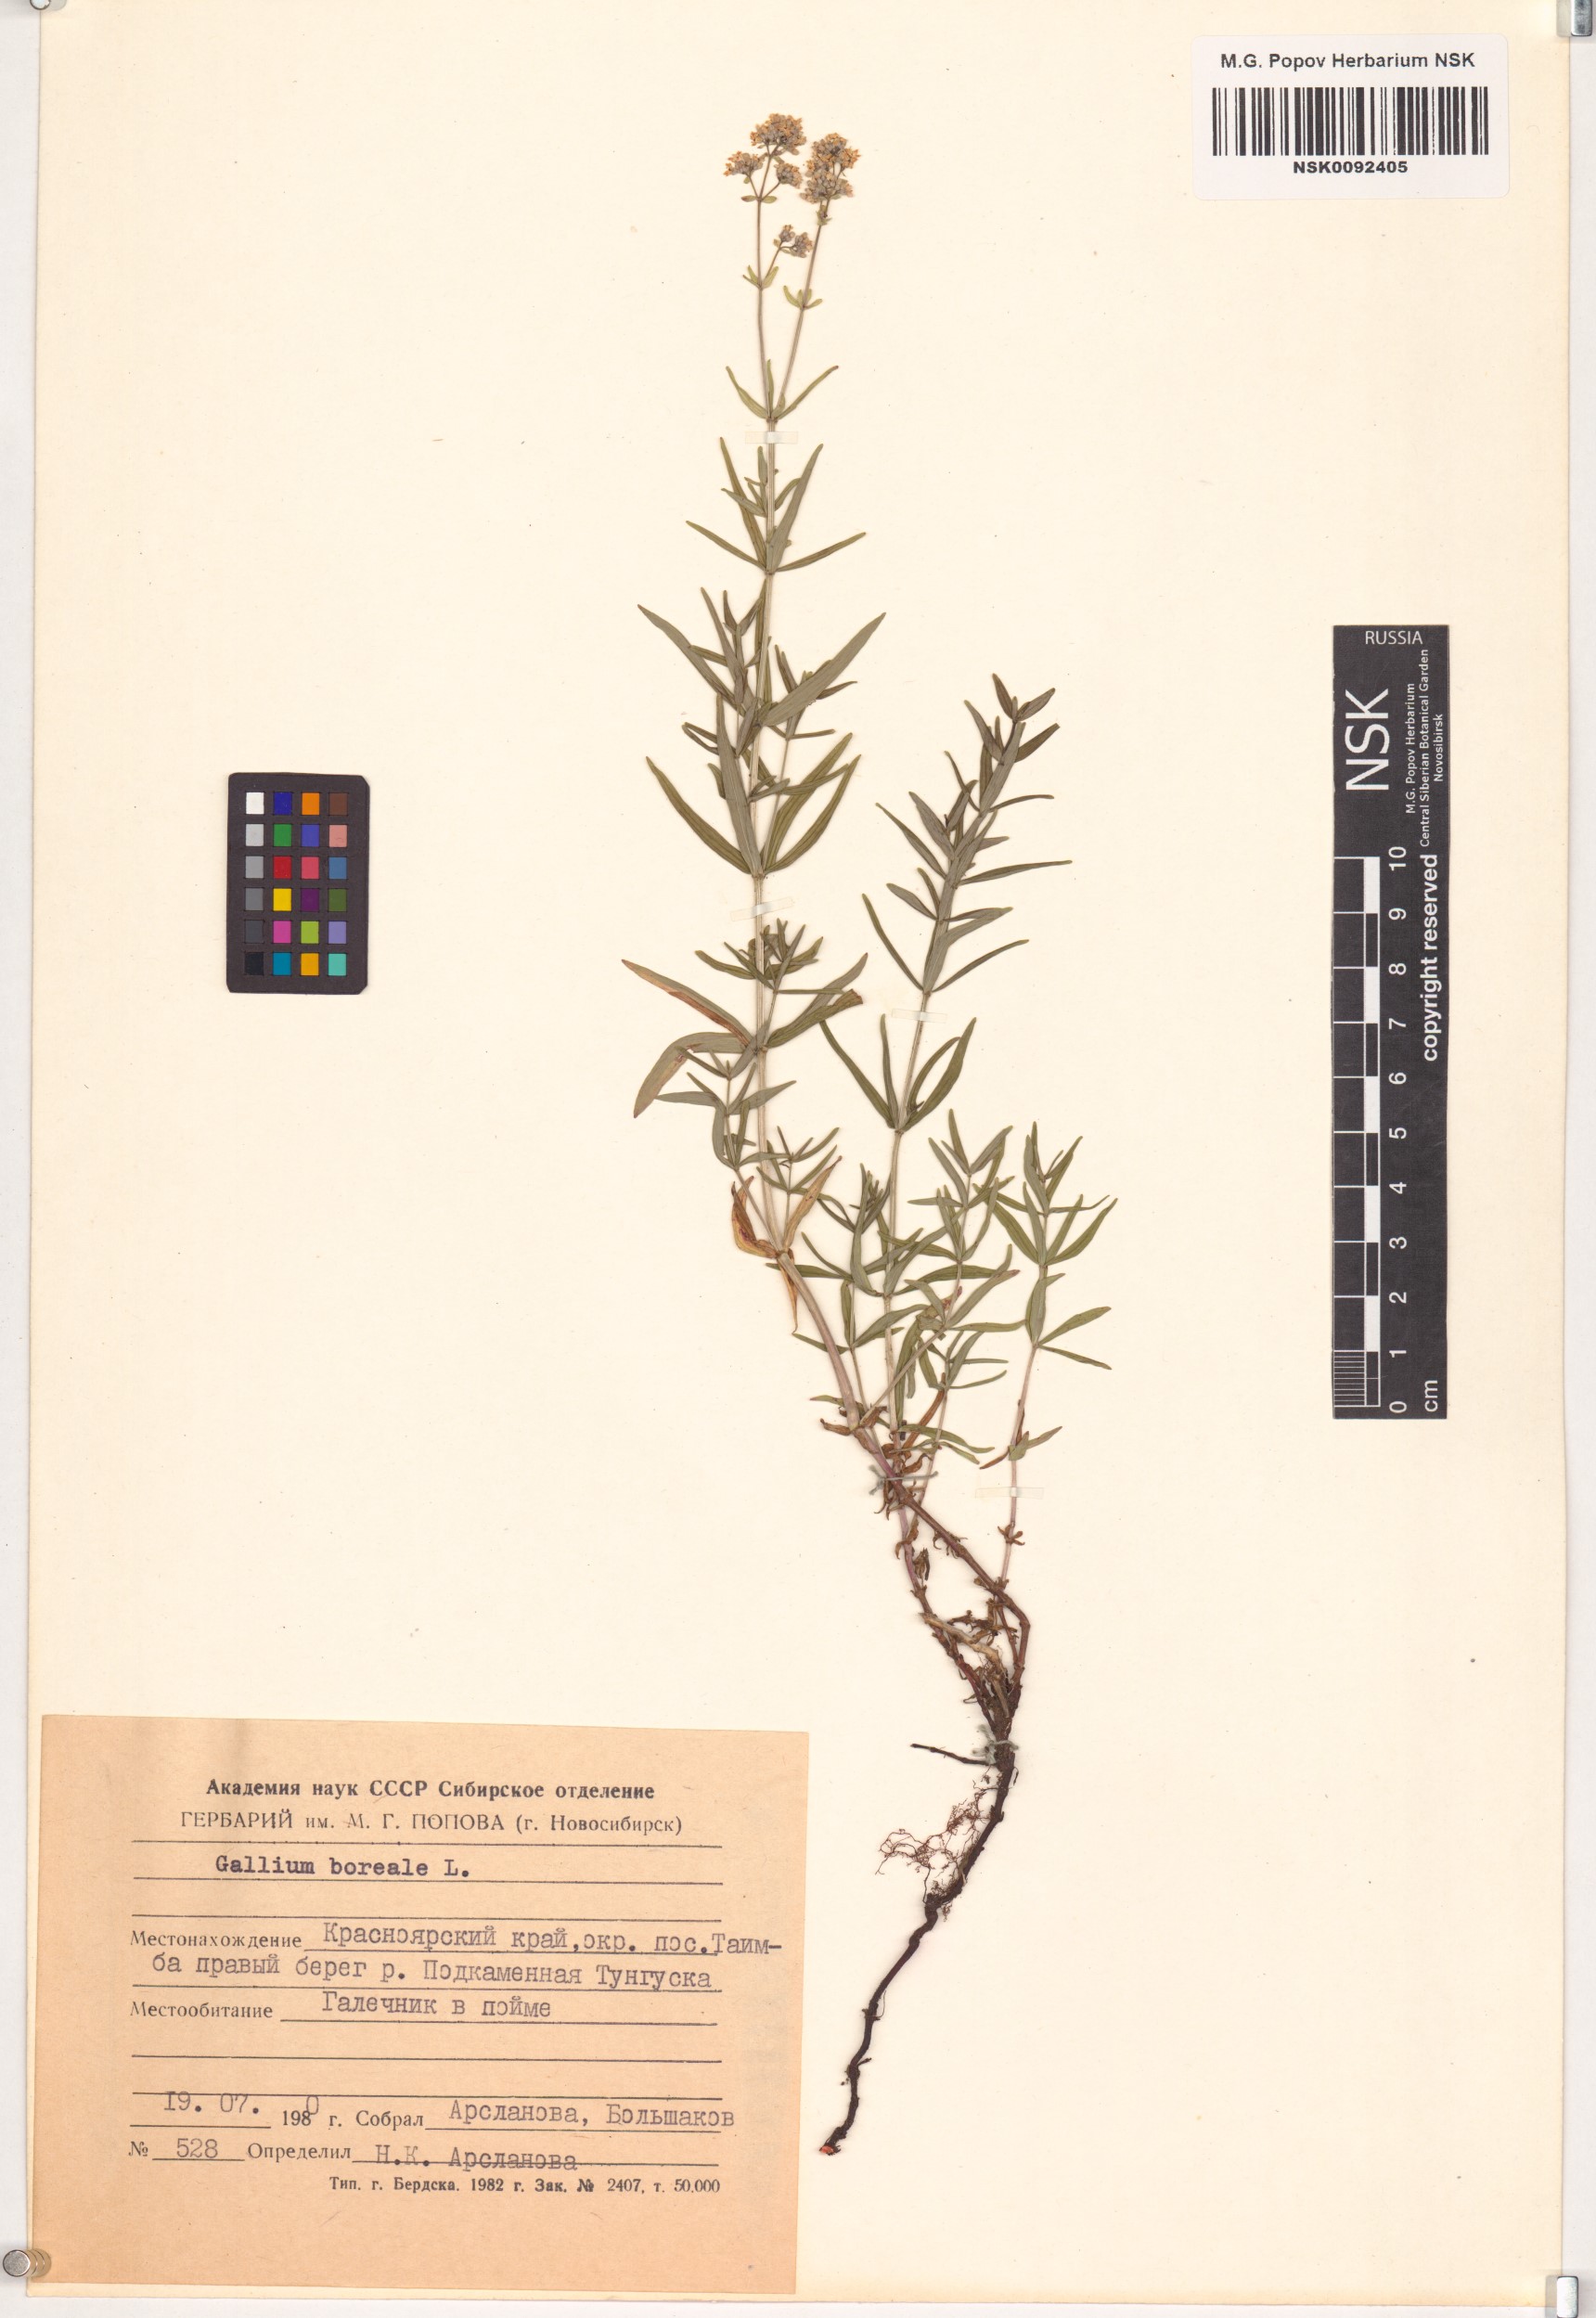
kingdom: Plantae
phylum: Tracheophyta
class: Magnoliopsida
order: Gentianales
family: Rubiaceae
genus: Galium
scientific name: Galium boreale
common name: Northern bedstraw
